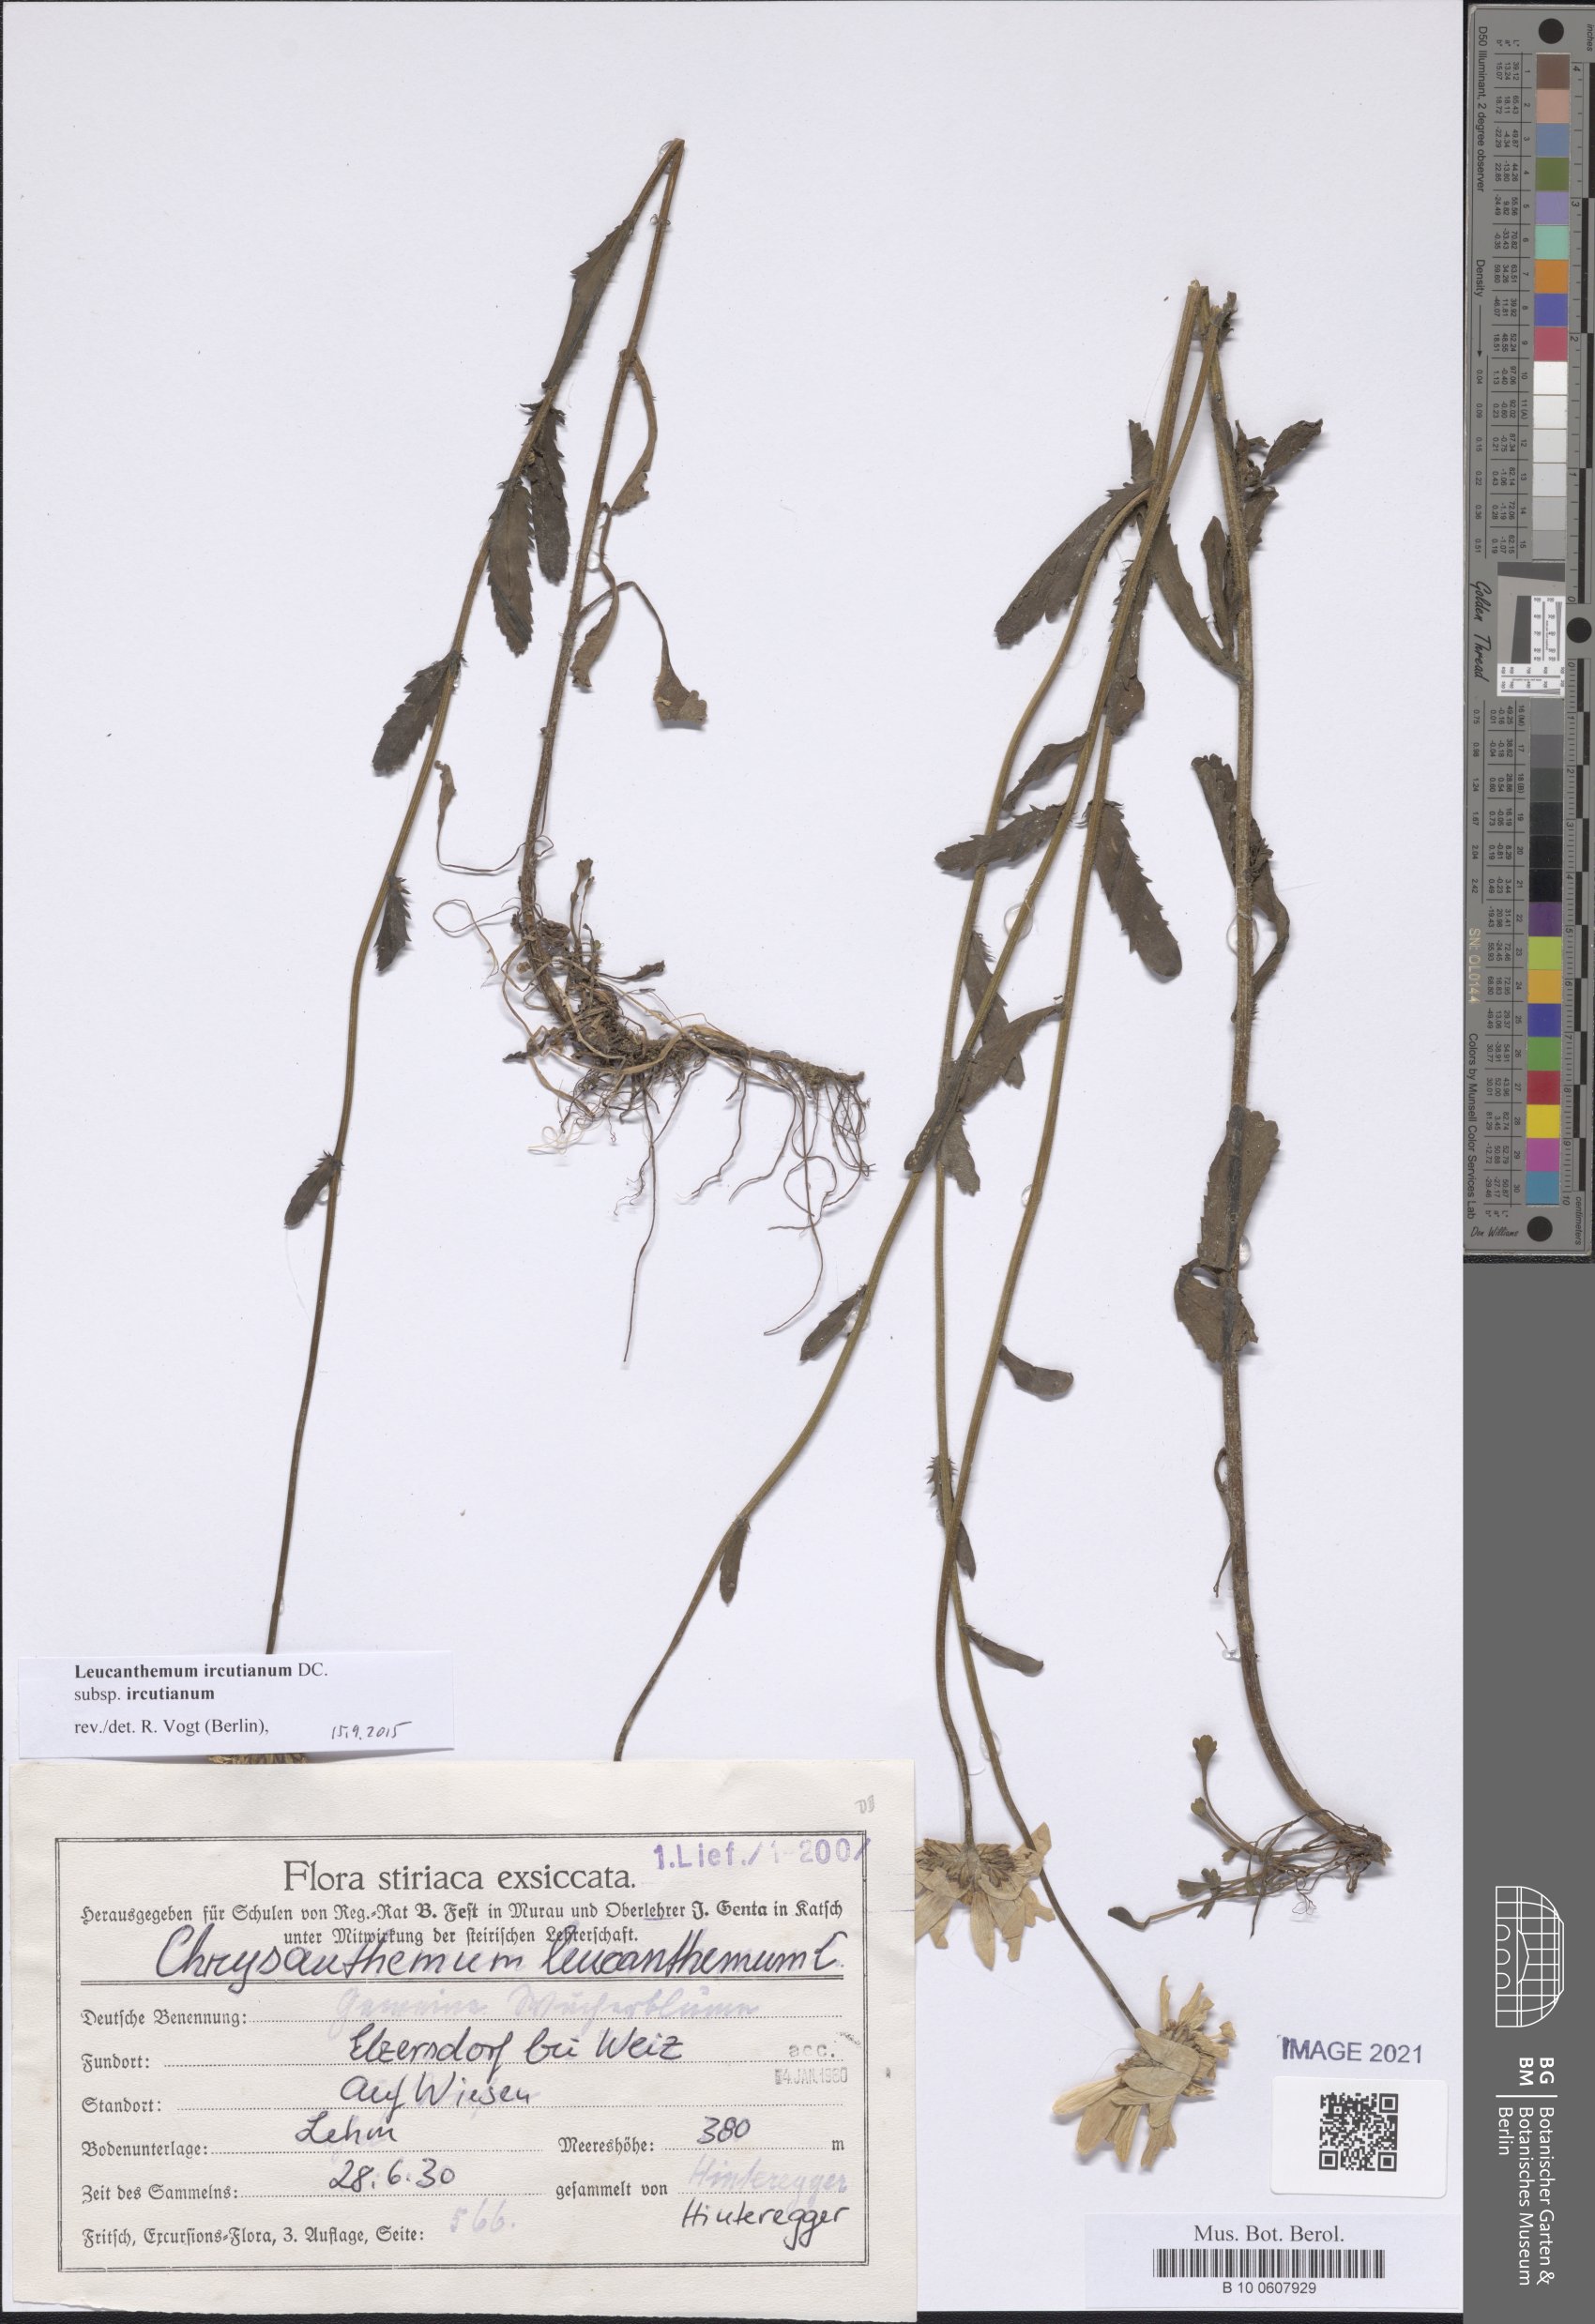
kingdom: Plantae
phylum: Tracheophyta
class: Magnoliopsida
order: Asterales
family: Asteraceae
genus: Leucanthemum
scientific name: Leucanthemum ircutianum
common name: Daisy
